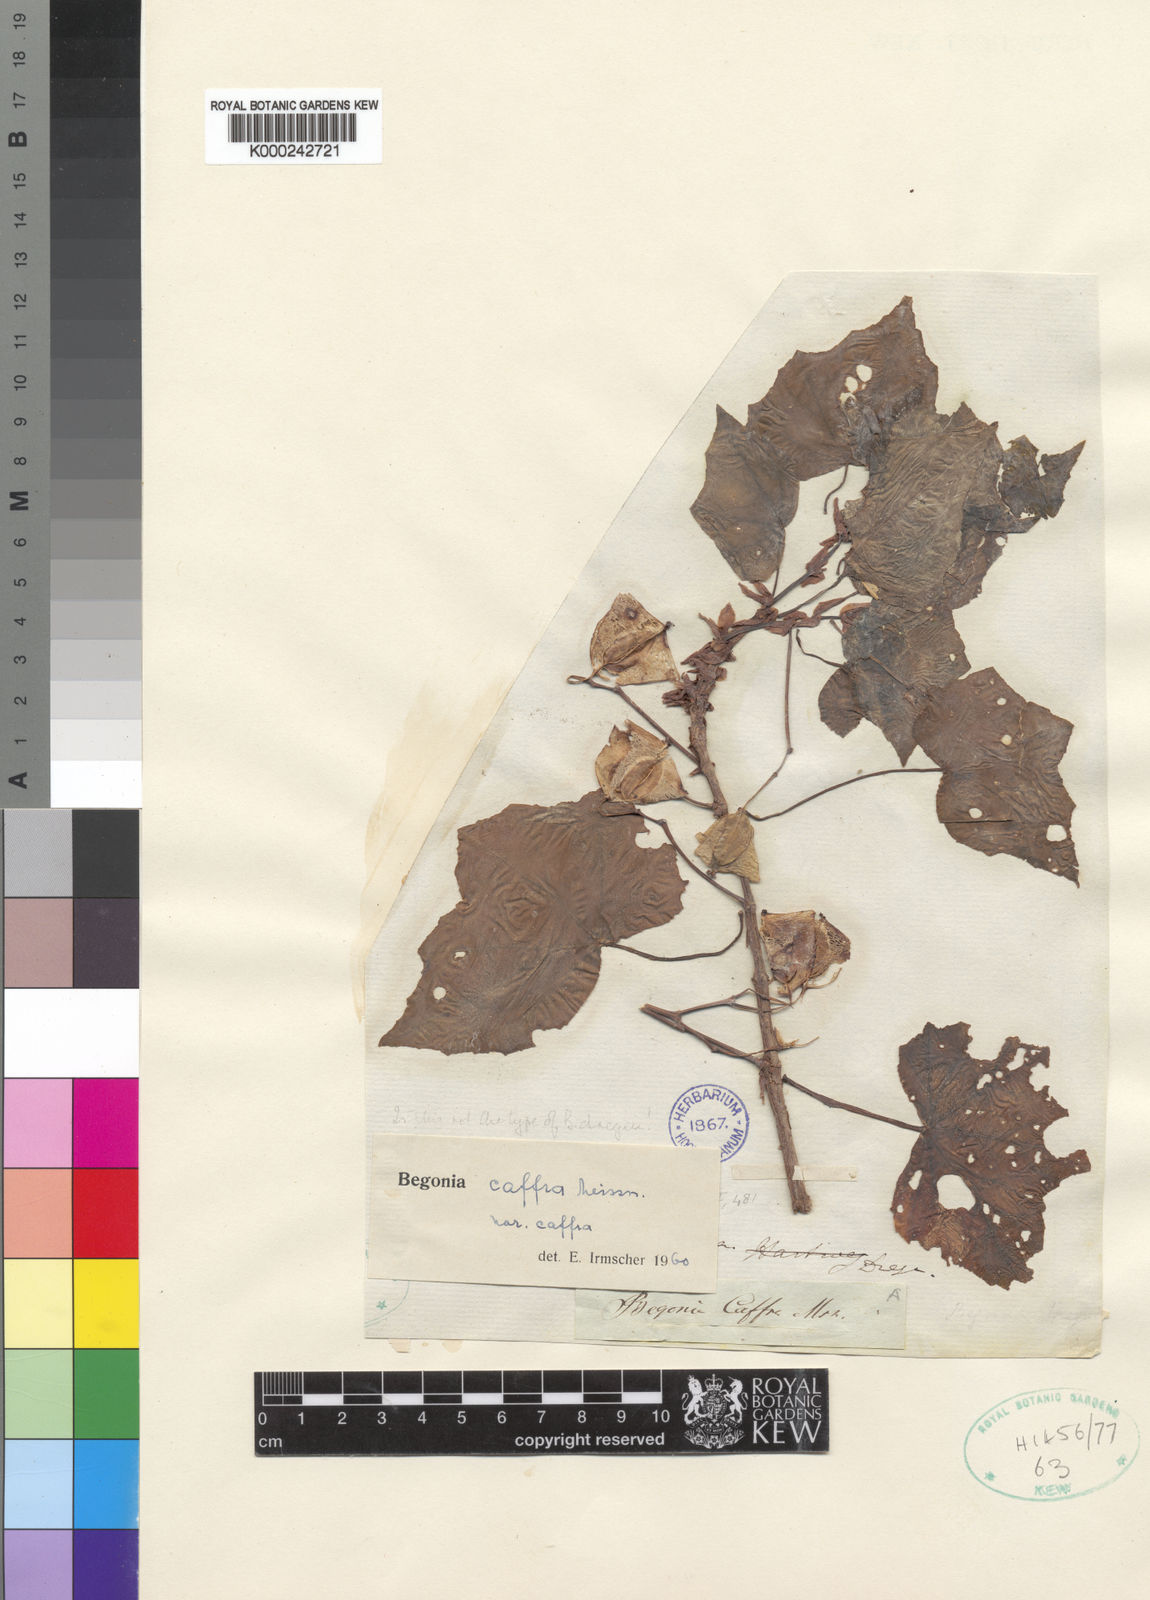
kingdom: Plantae
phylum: Tracheophyta
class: Magnoliopsida
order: Cucurbitales
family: Begoniaceae
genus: Begonia
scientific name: Begonia homonyma
